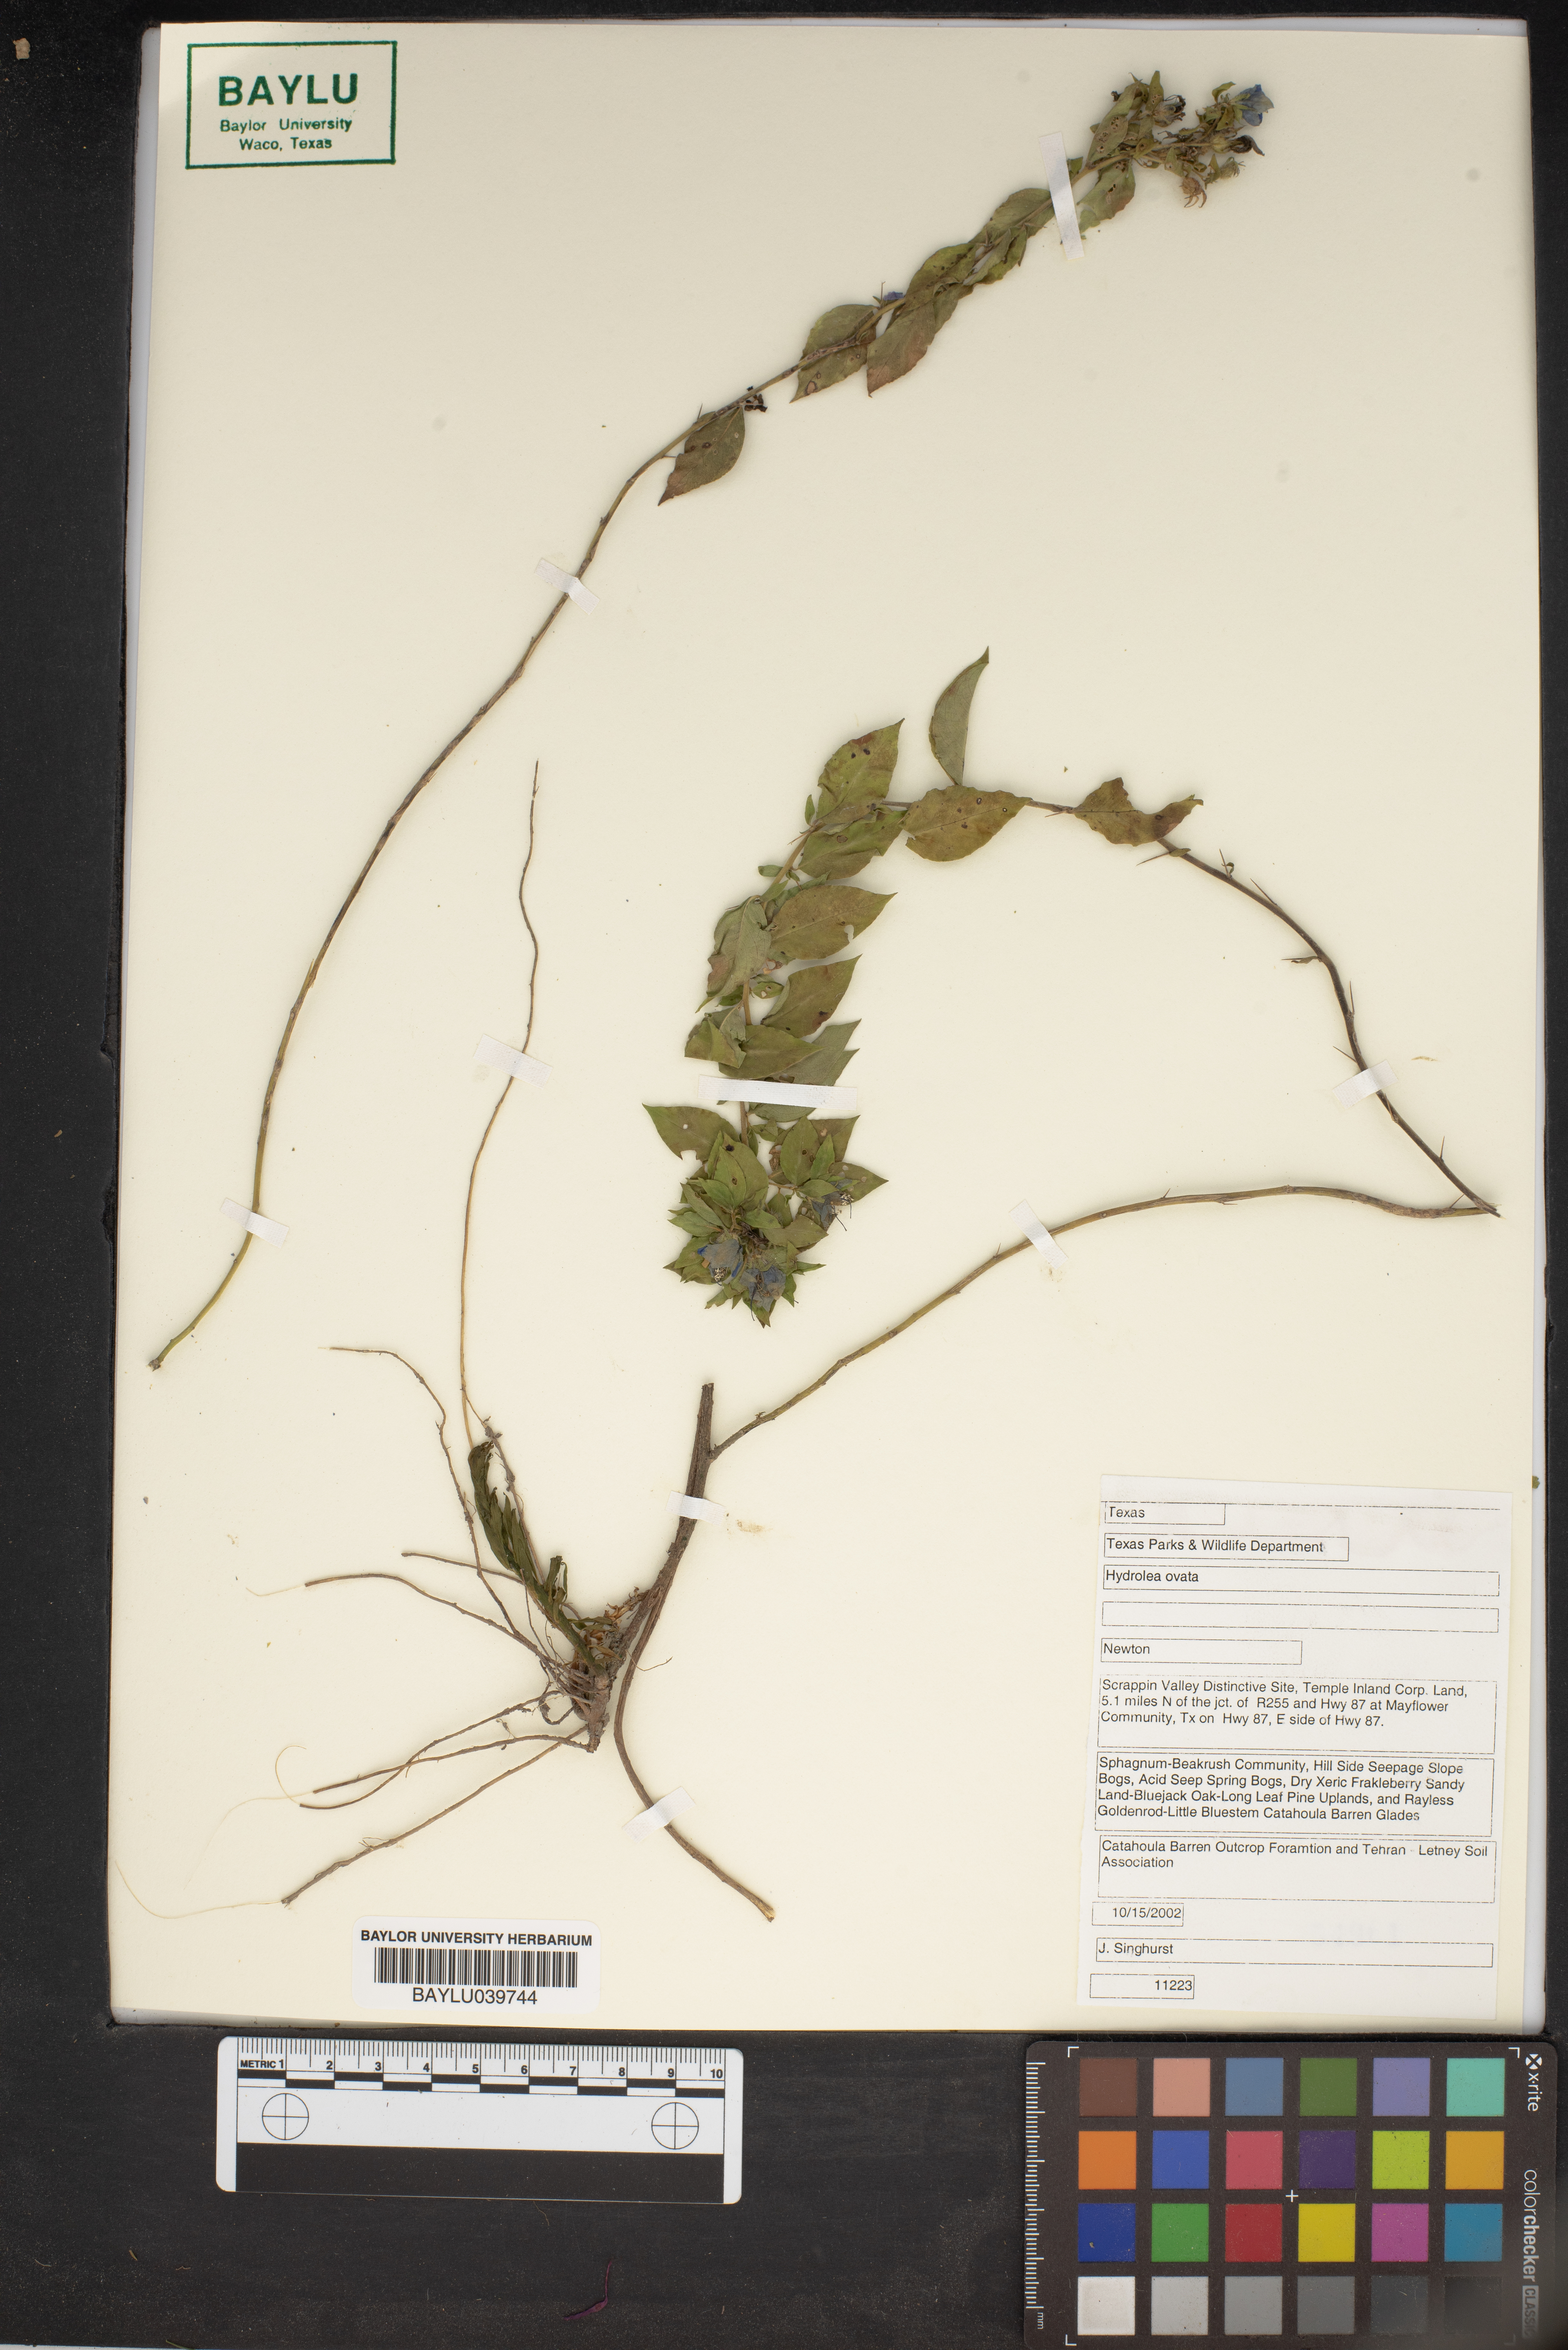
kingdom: Plantae
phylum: Tracheophyta
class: Magnoliopsida
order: Solanales
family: Hydroleaceae
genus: Hydrolea
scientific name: Hydrolea ovata
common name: Ovate false fiddleleaf
